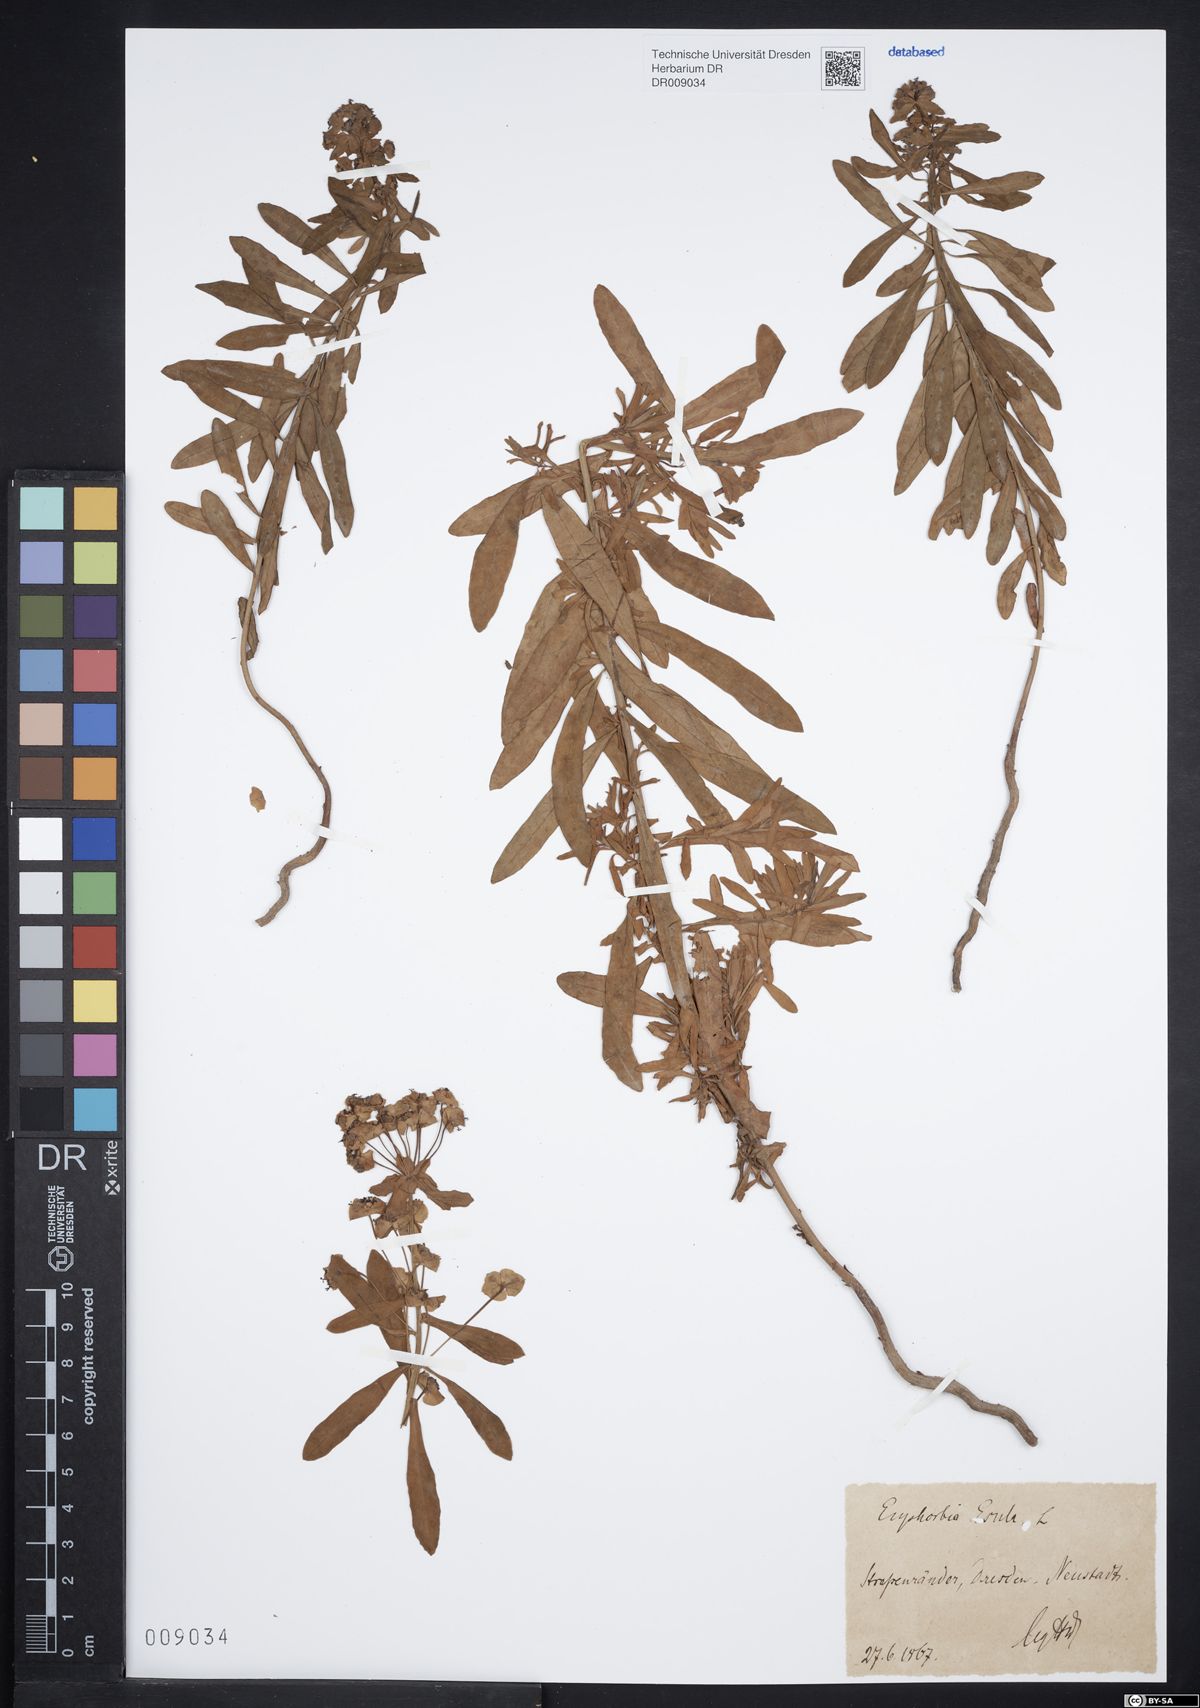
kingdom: Plantae
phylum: Tracheophyta
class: Magnoliopsida
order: Malpighiales
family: Euphorbiaceae
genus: Euphorbia
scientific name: Euphorbia esula
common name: Leafy spurge
